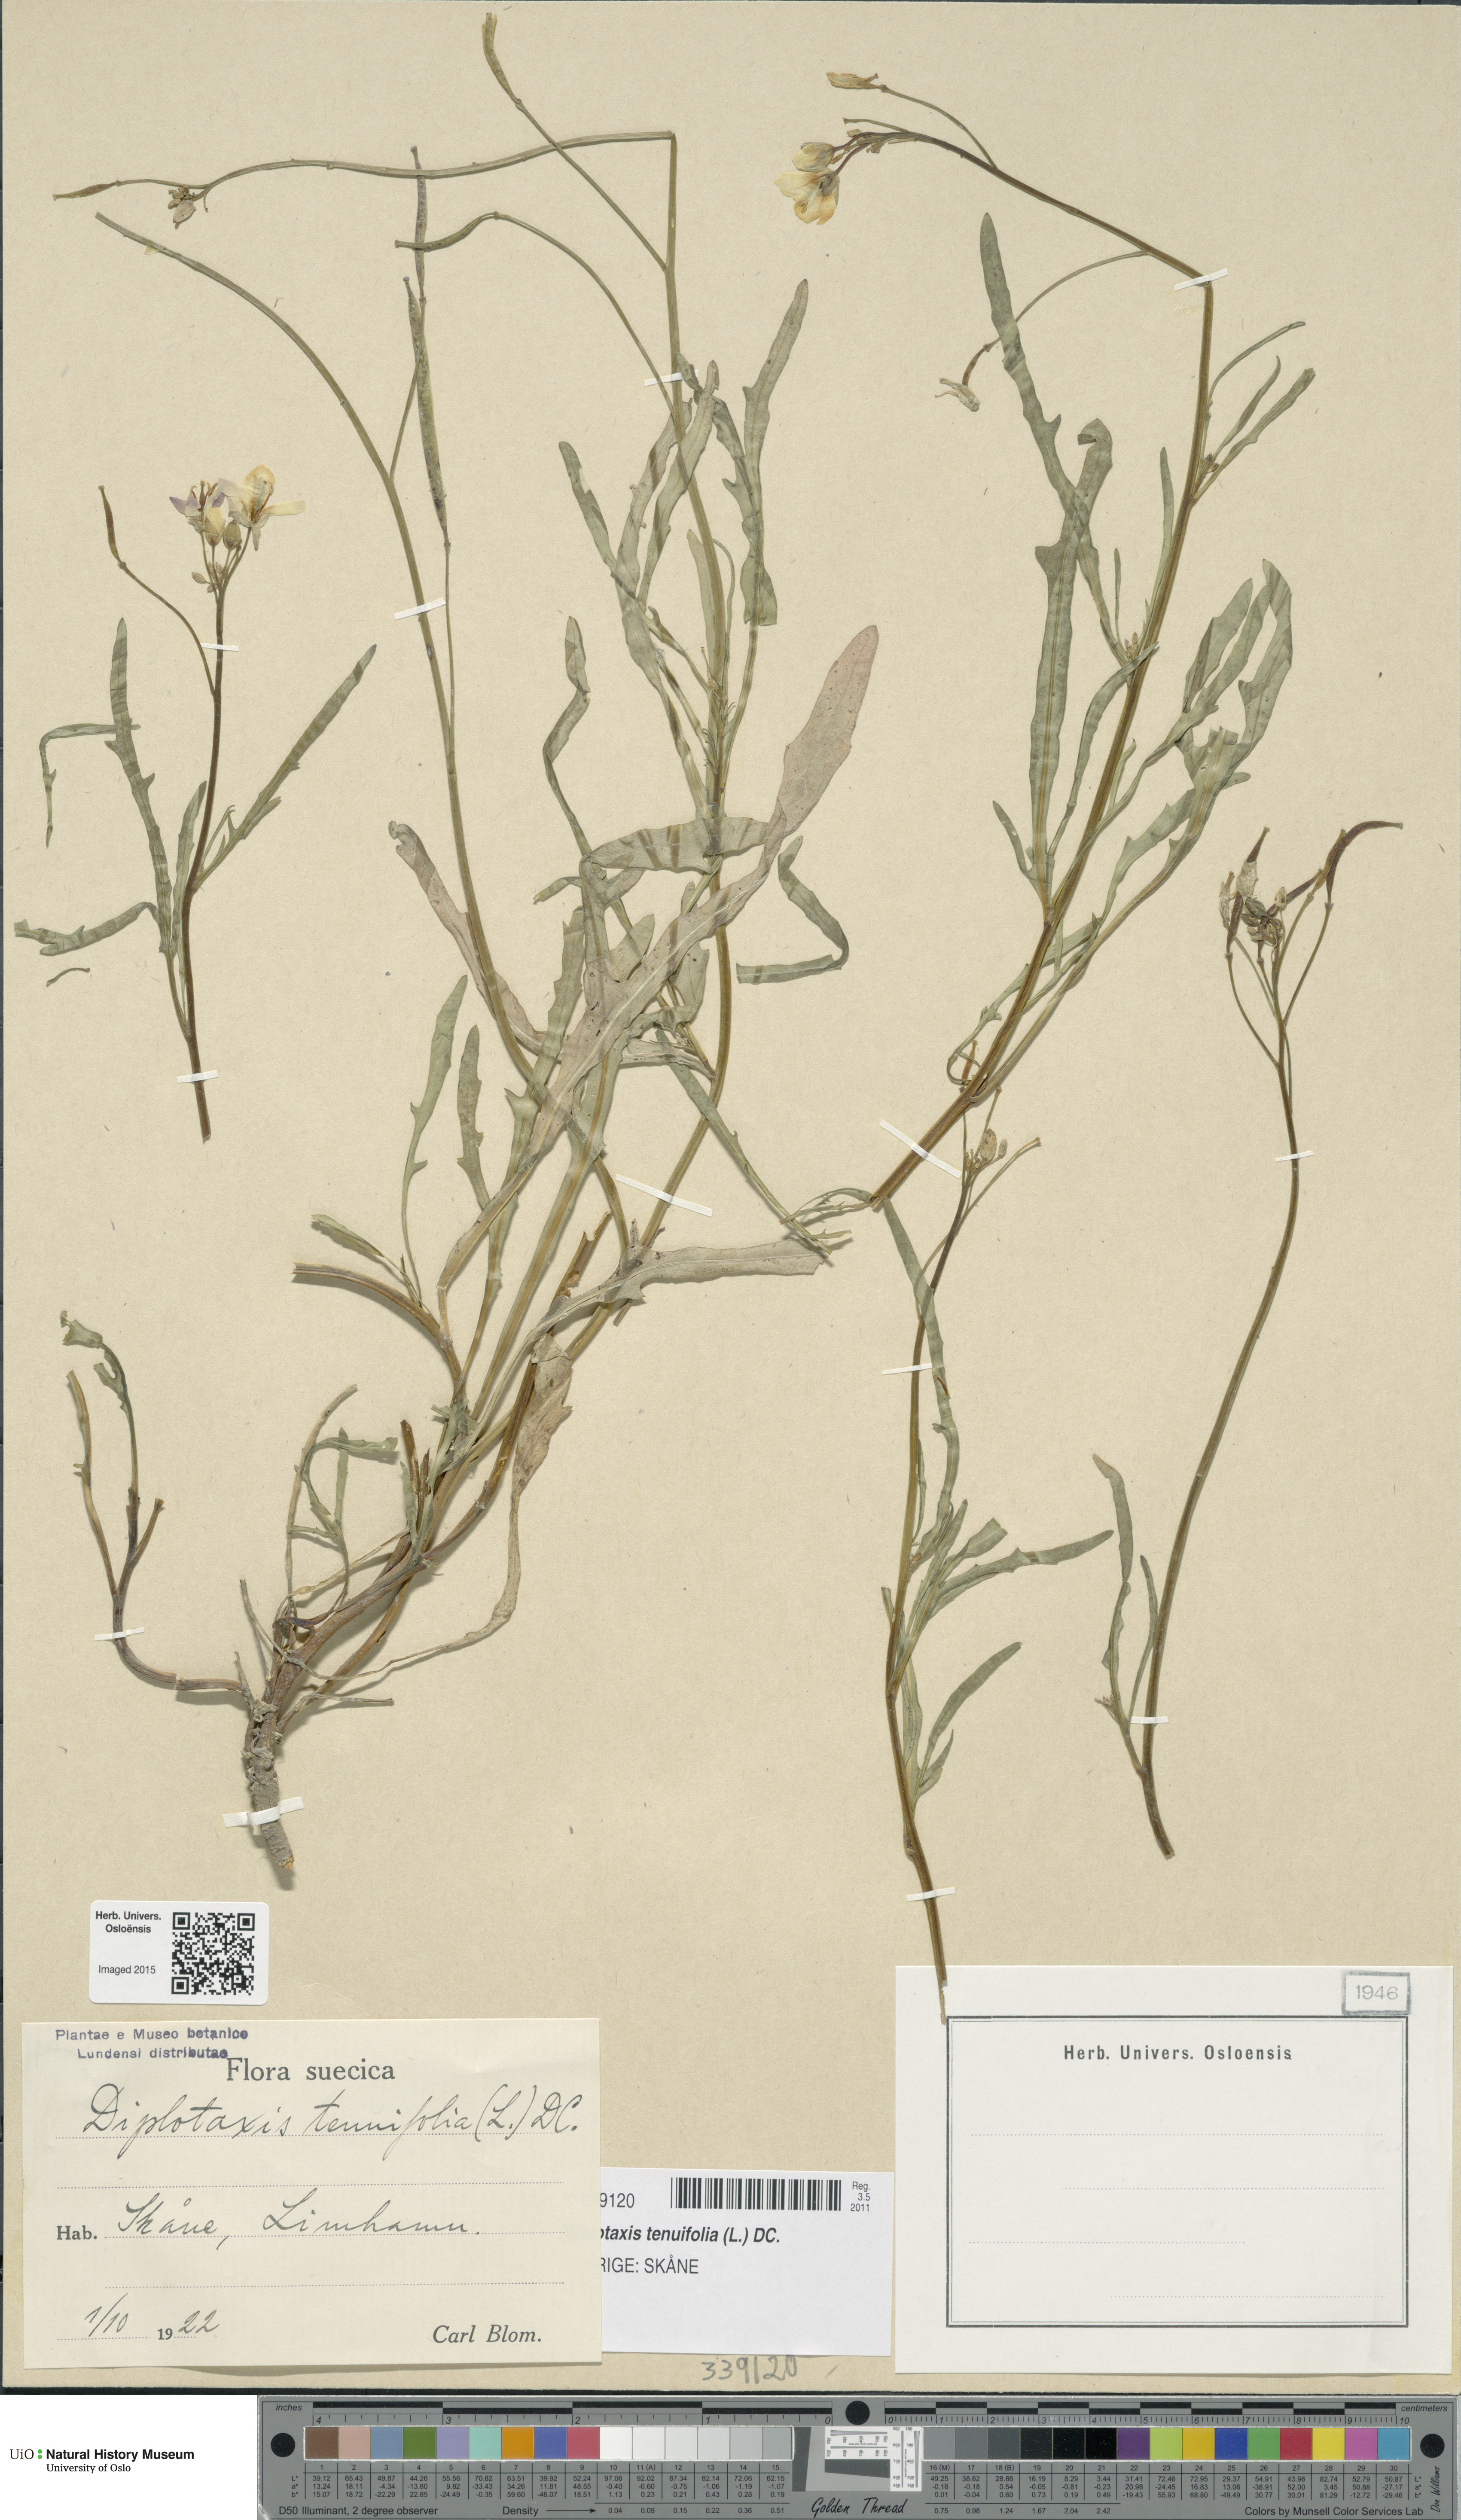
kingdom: Plantae
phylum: Tracheophyta
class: Magnoliopsida
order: Brassicales
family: Brassicaceae
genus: Diplotaxis
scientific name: Diplotaxis tenuifolia
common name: Perennial wall-rocket
